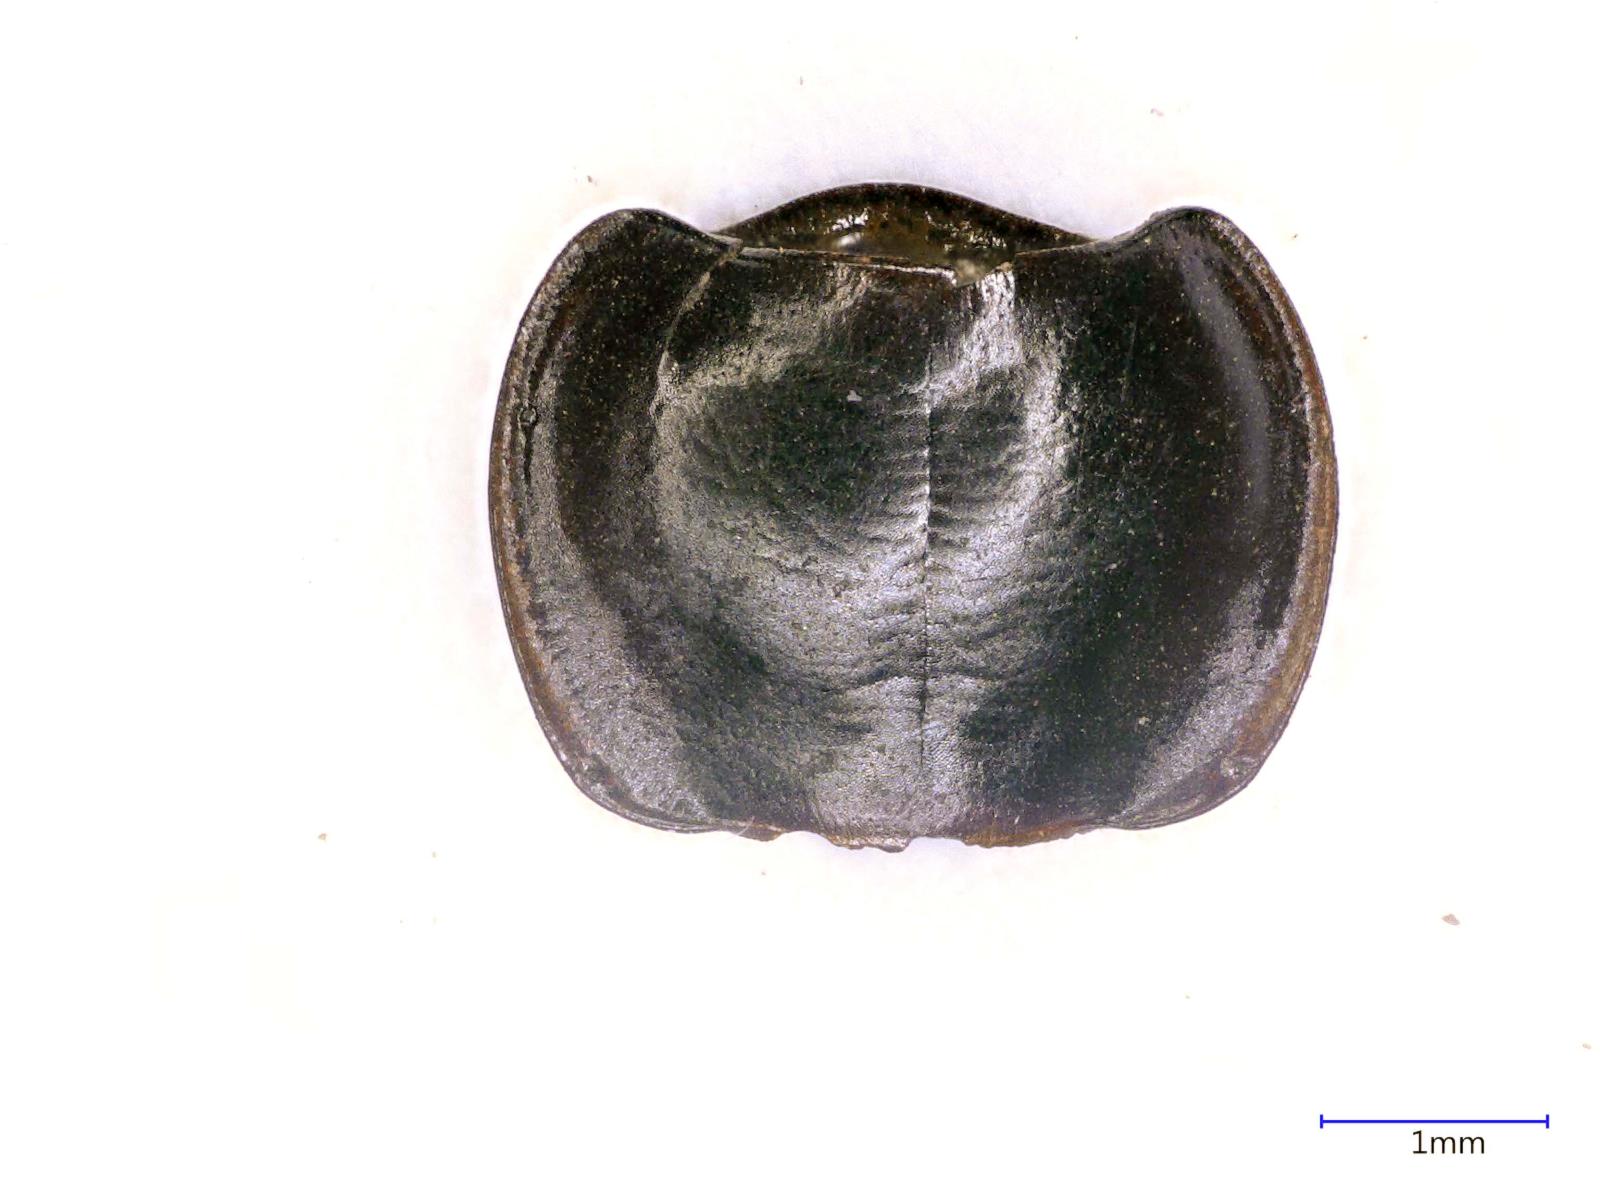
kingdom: Animalia
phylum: Arthropoda
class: Insecta
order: Coleoptera
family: Carabidae
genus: Tanystoma
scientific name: Tanystoma maculicolle
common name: Tule beetle
